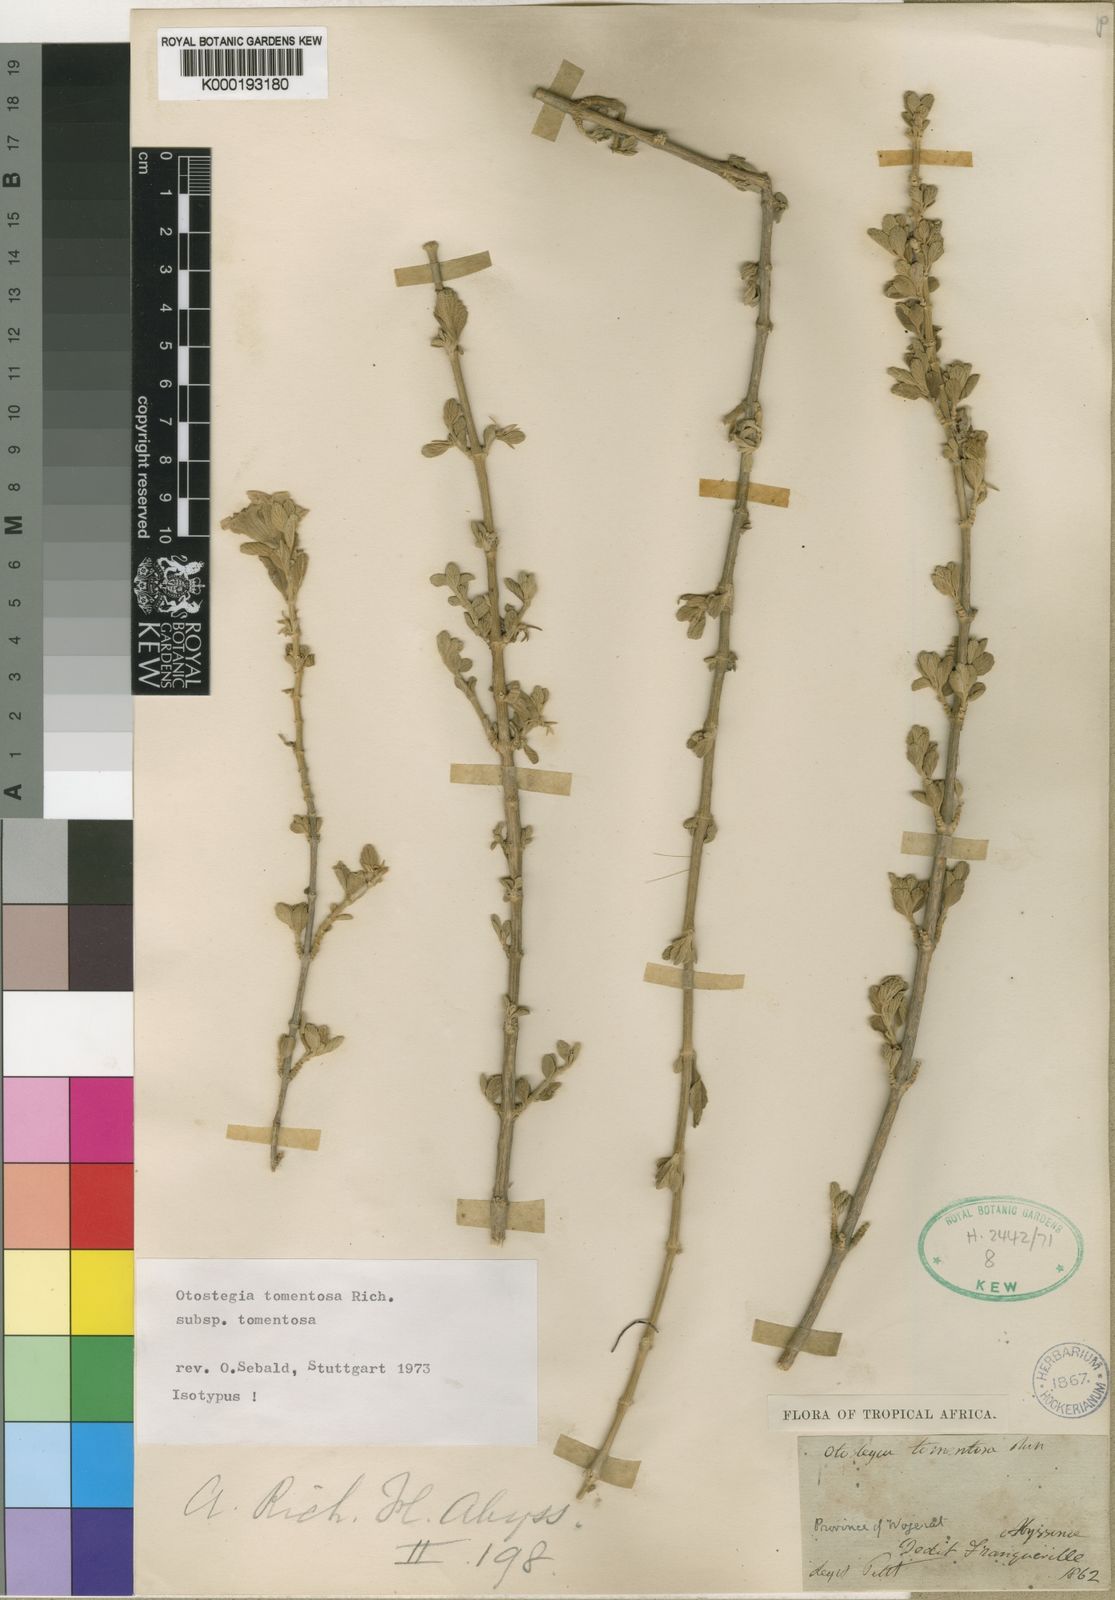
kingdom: Plantae
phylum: Tracheophyta
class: Magnoliopsida
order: Lamiales
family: Lamiaceae
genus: Otostegia
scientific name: Otostegia tomentosa
